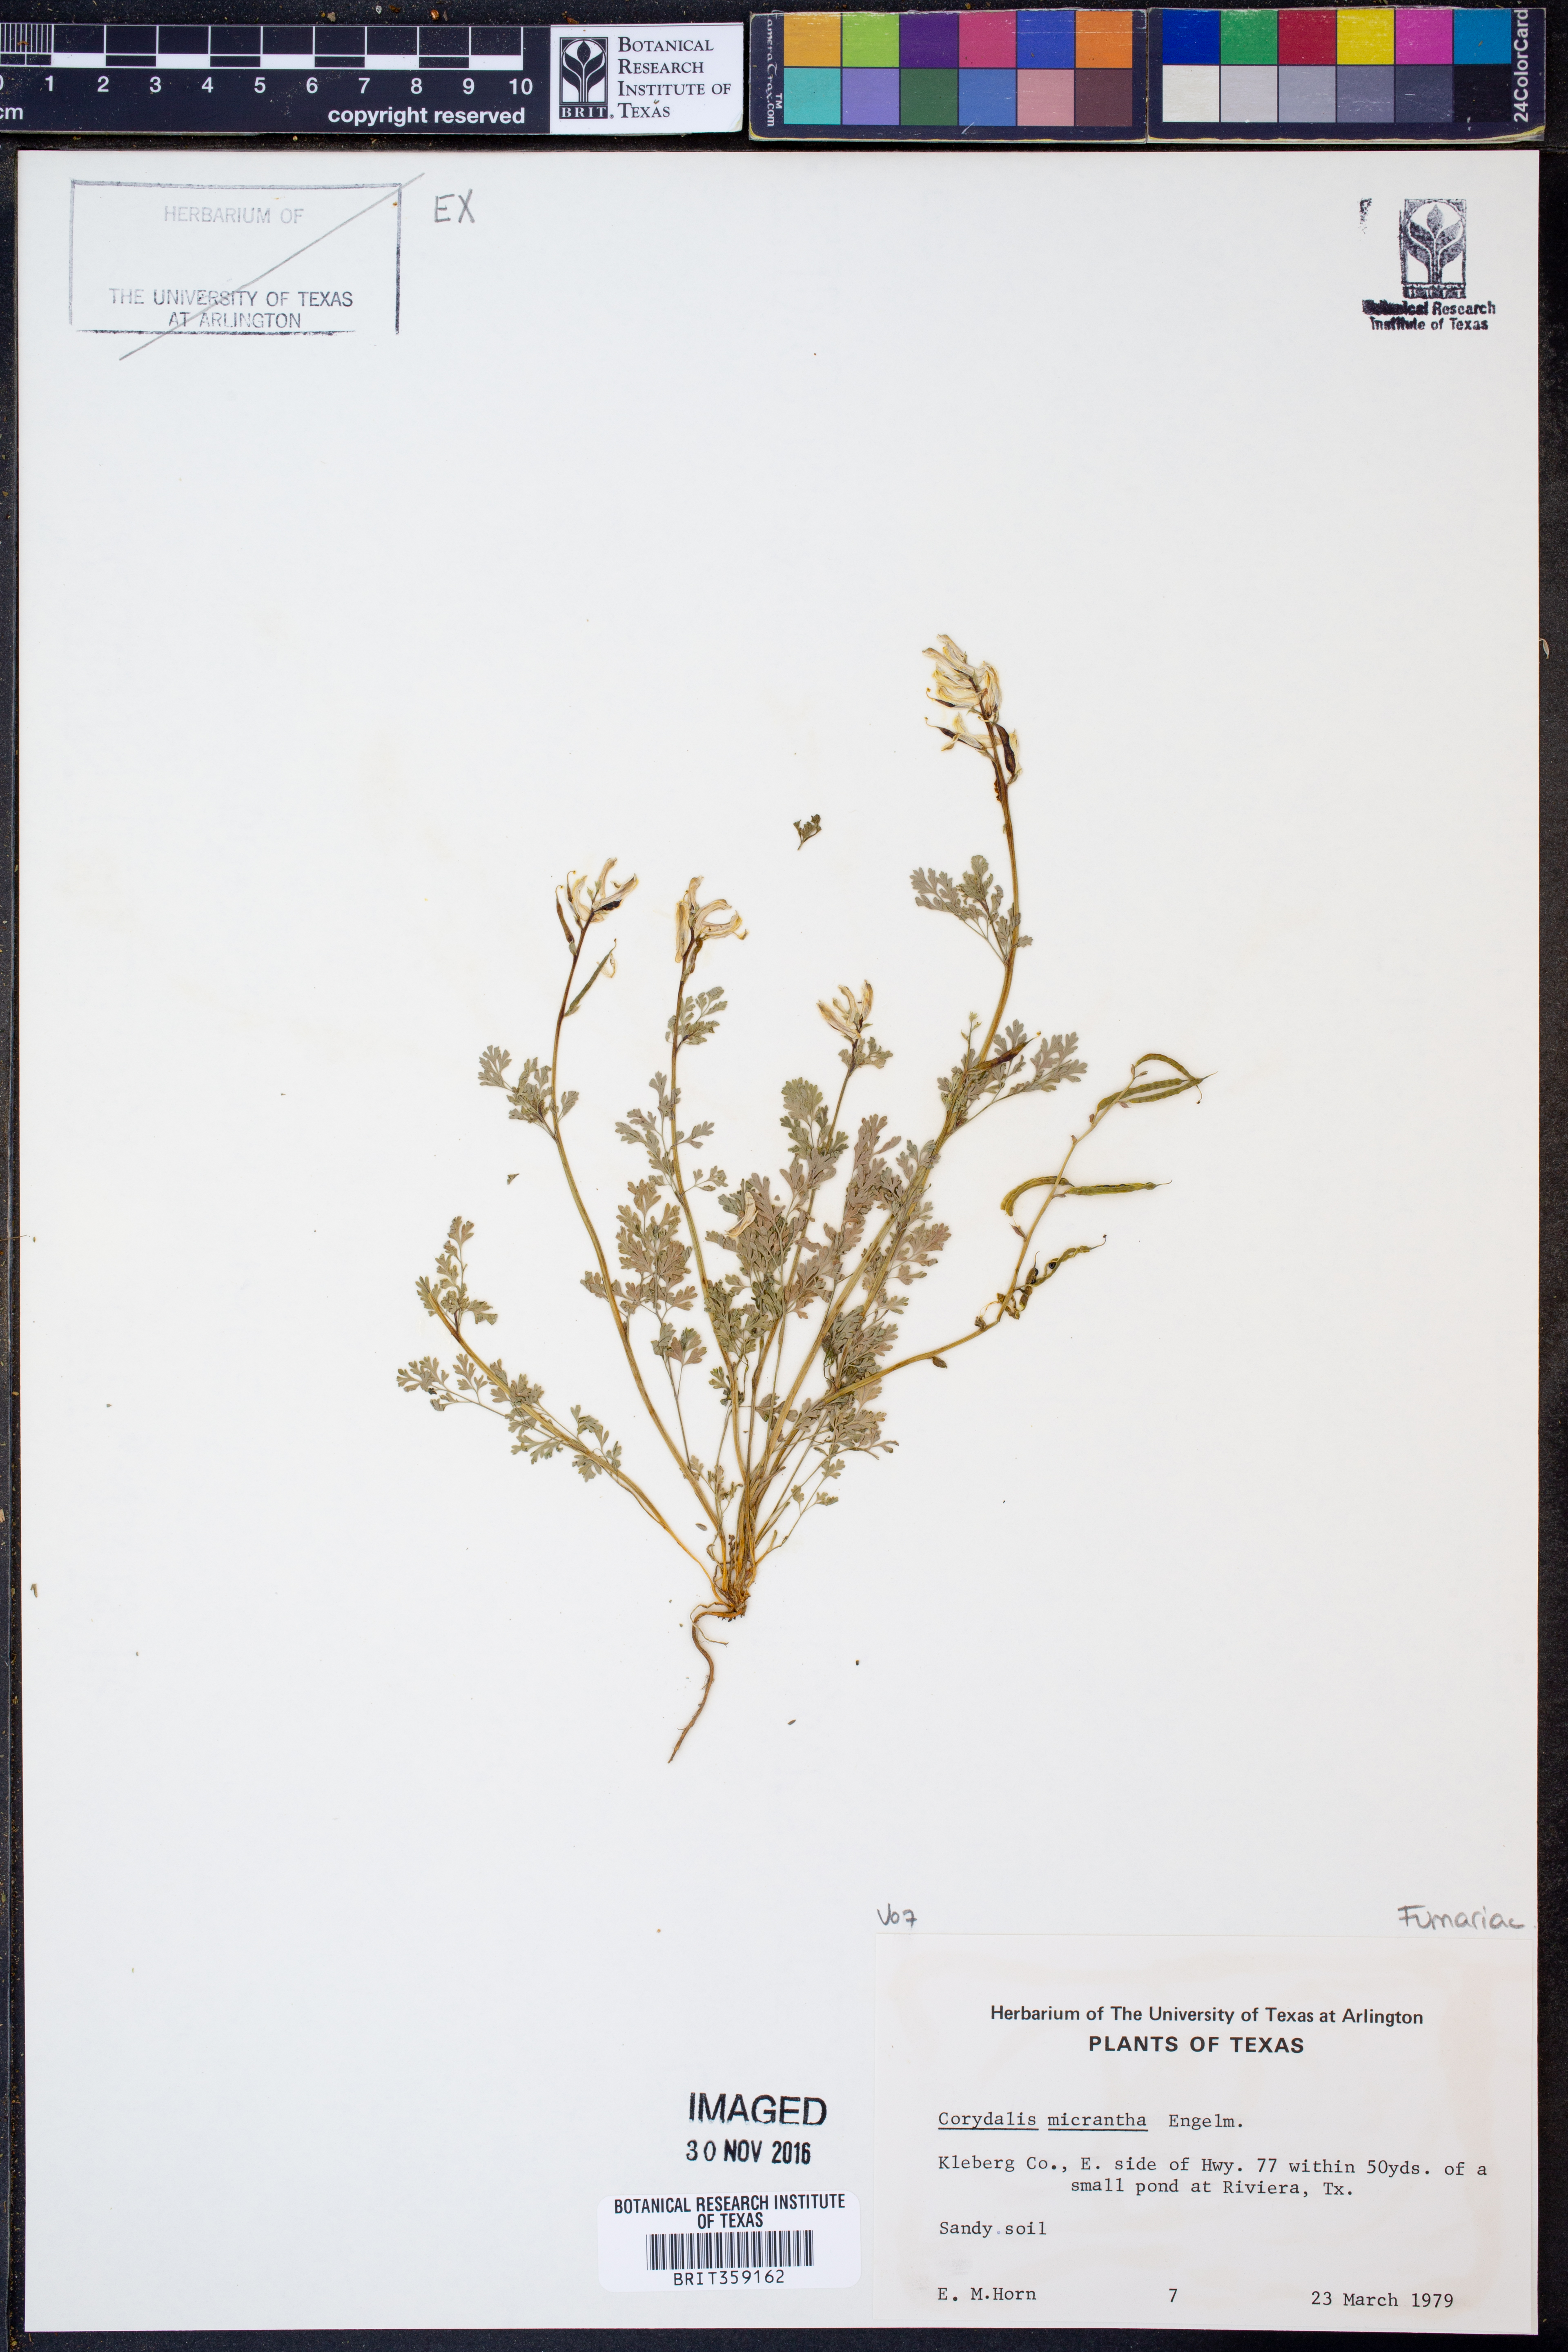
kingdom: Plantae
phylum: Tracheophyta
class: Magnoliopsida
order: Ranunculales
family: Papaveraceae
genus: Corydalis
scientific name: Corydalis micrantha
